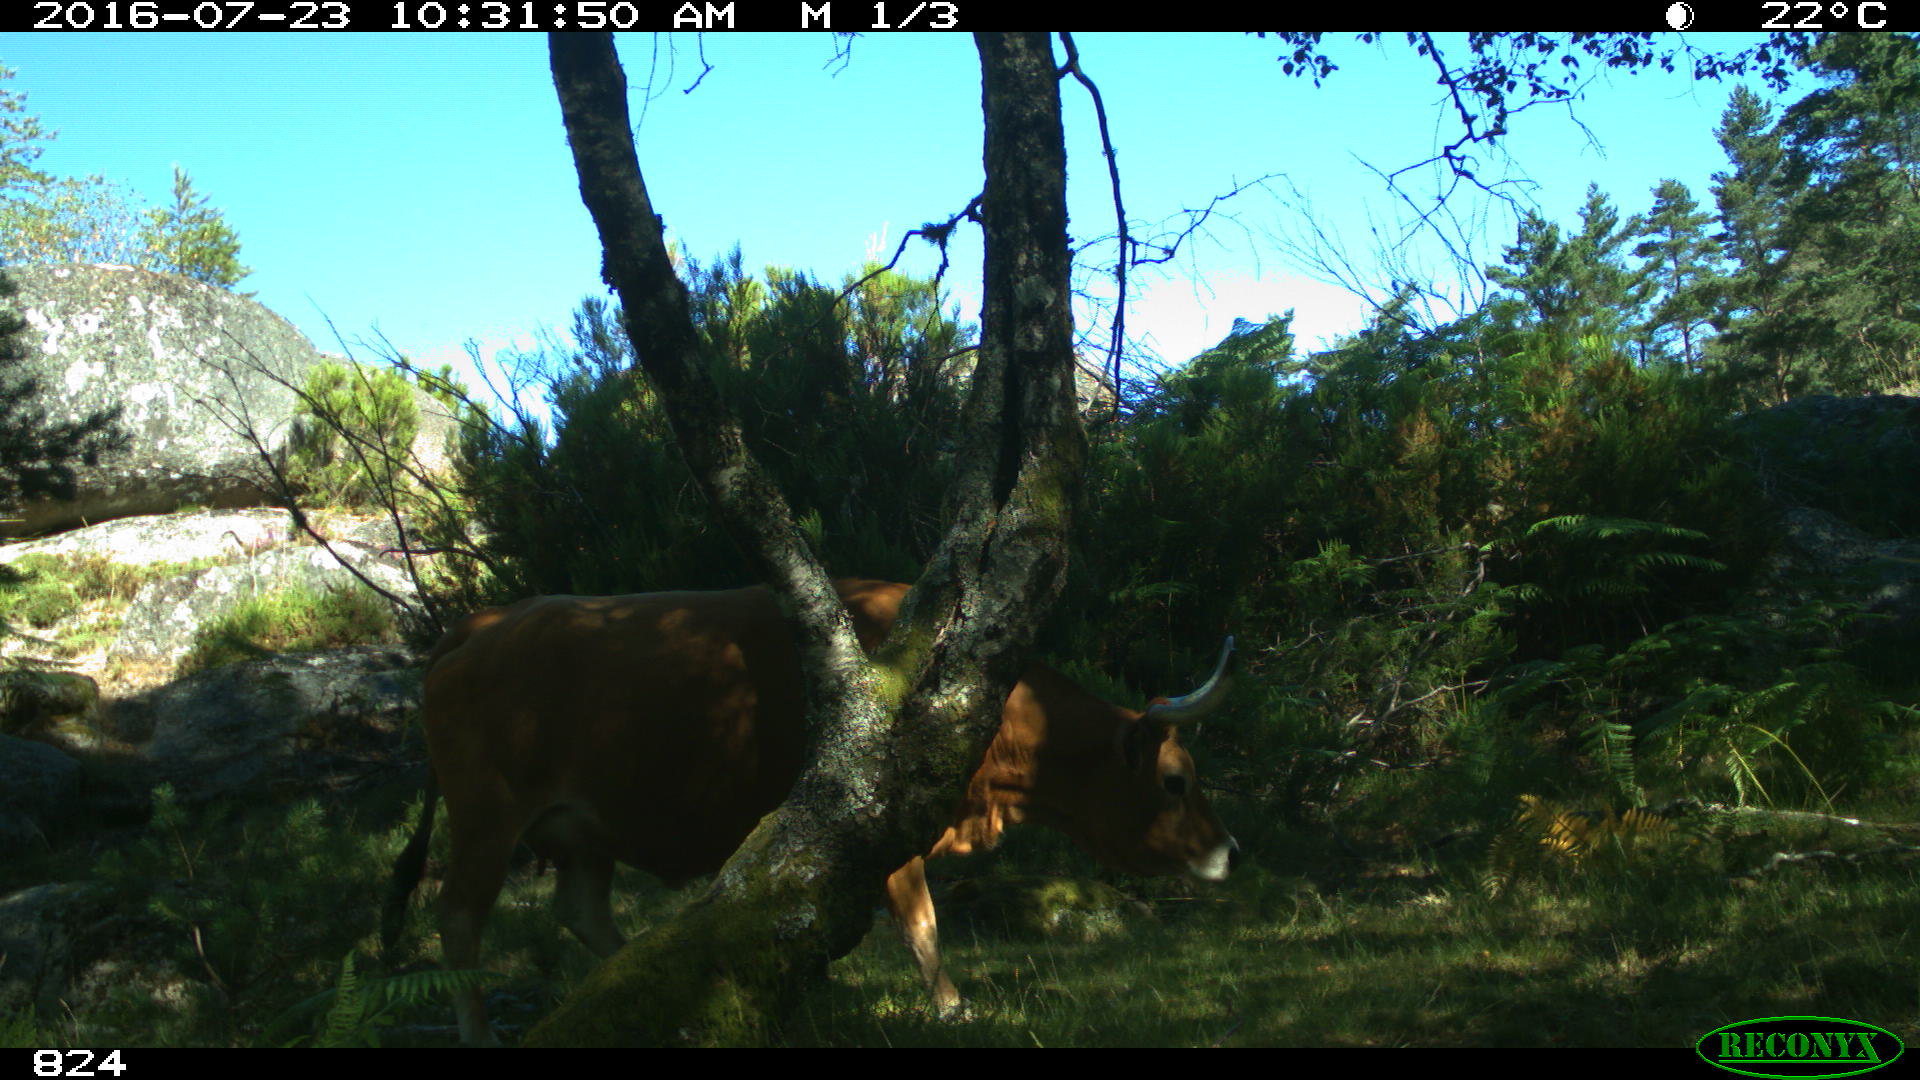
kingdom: Animalia
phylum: Chordata
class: Mammalia
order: Artiodactyla
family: Bovidae
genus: Bos
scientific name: Bos taurus
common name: Domesticated cattle
